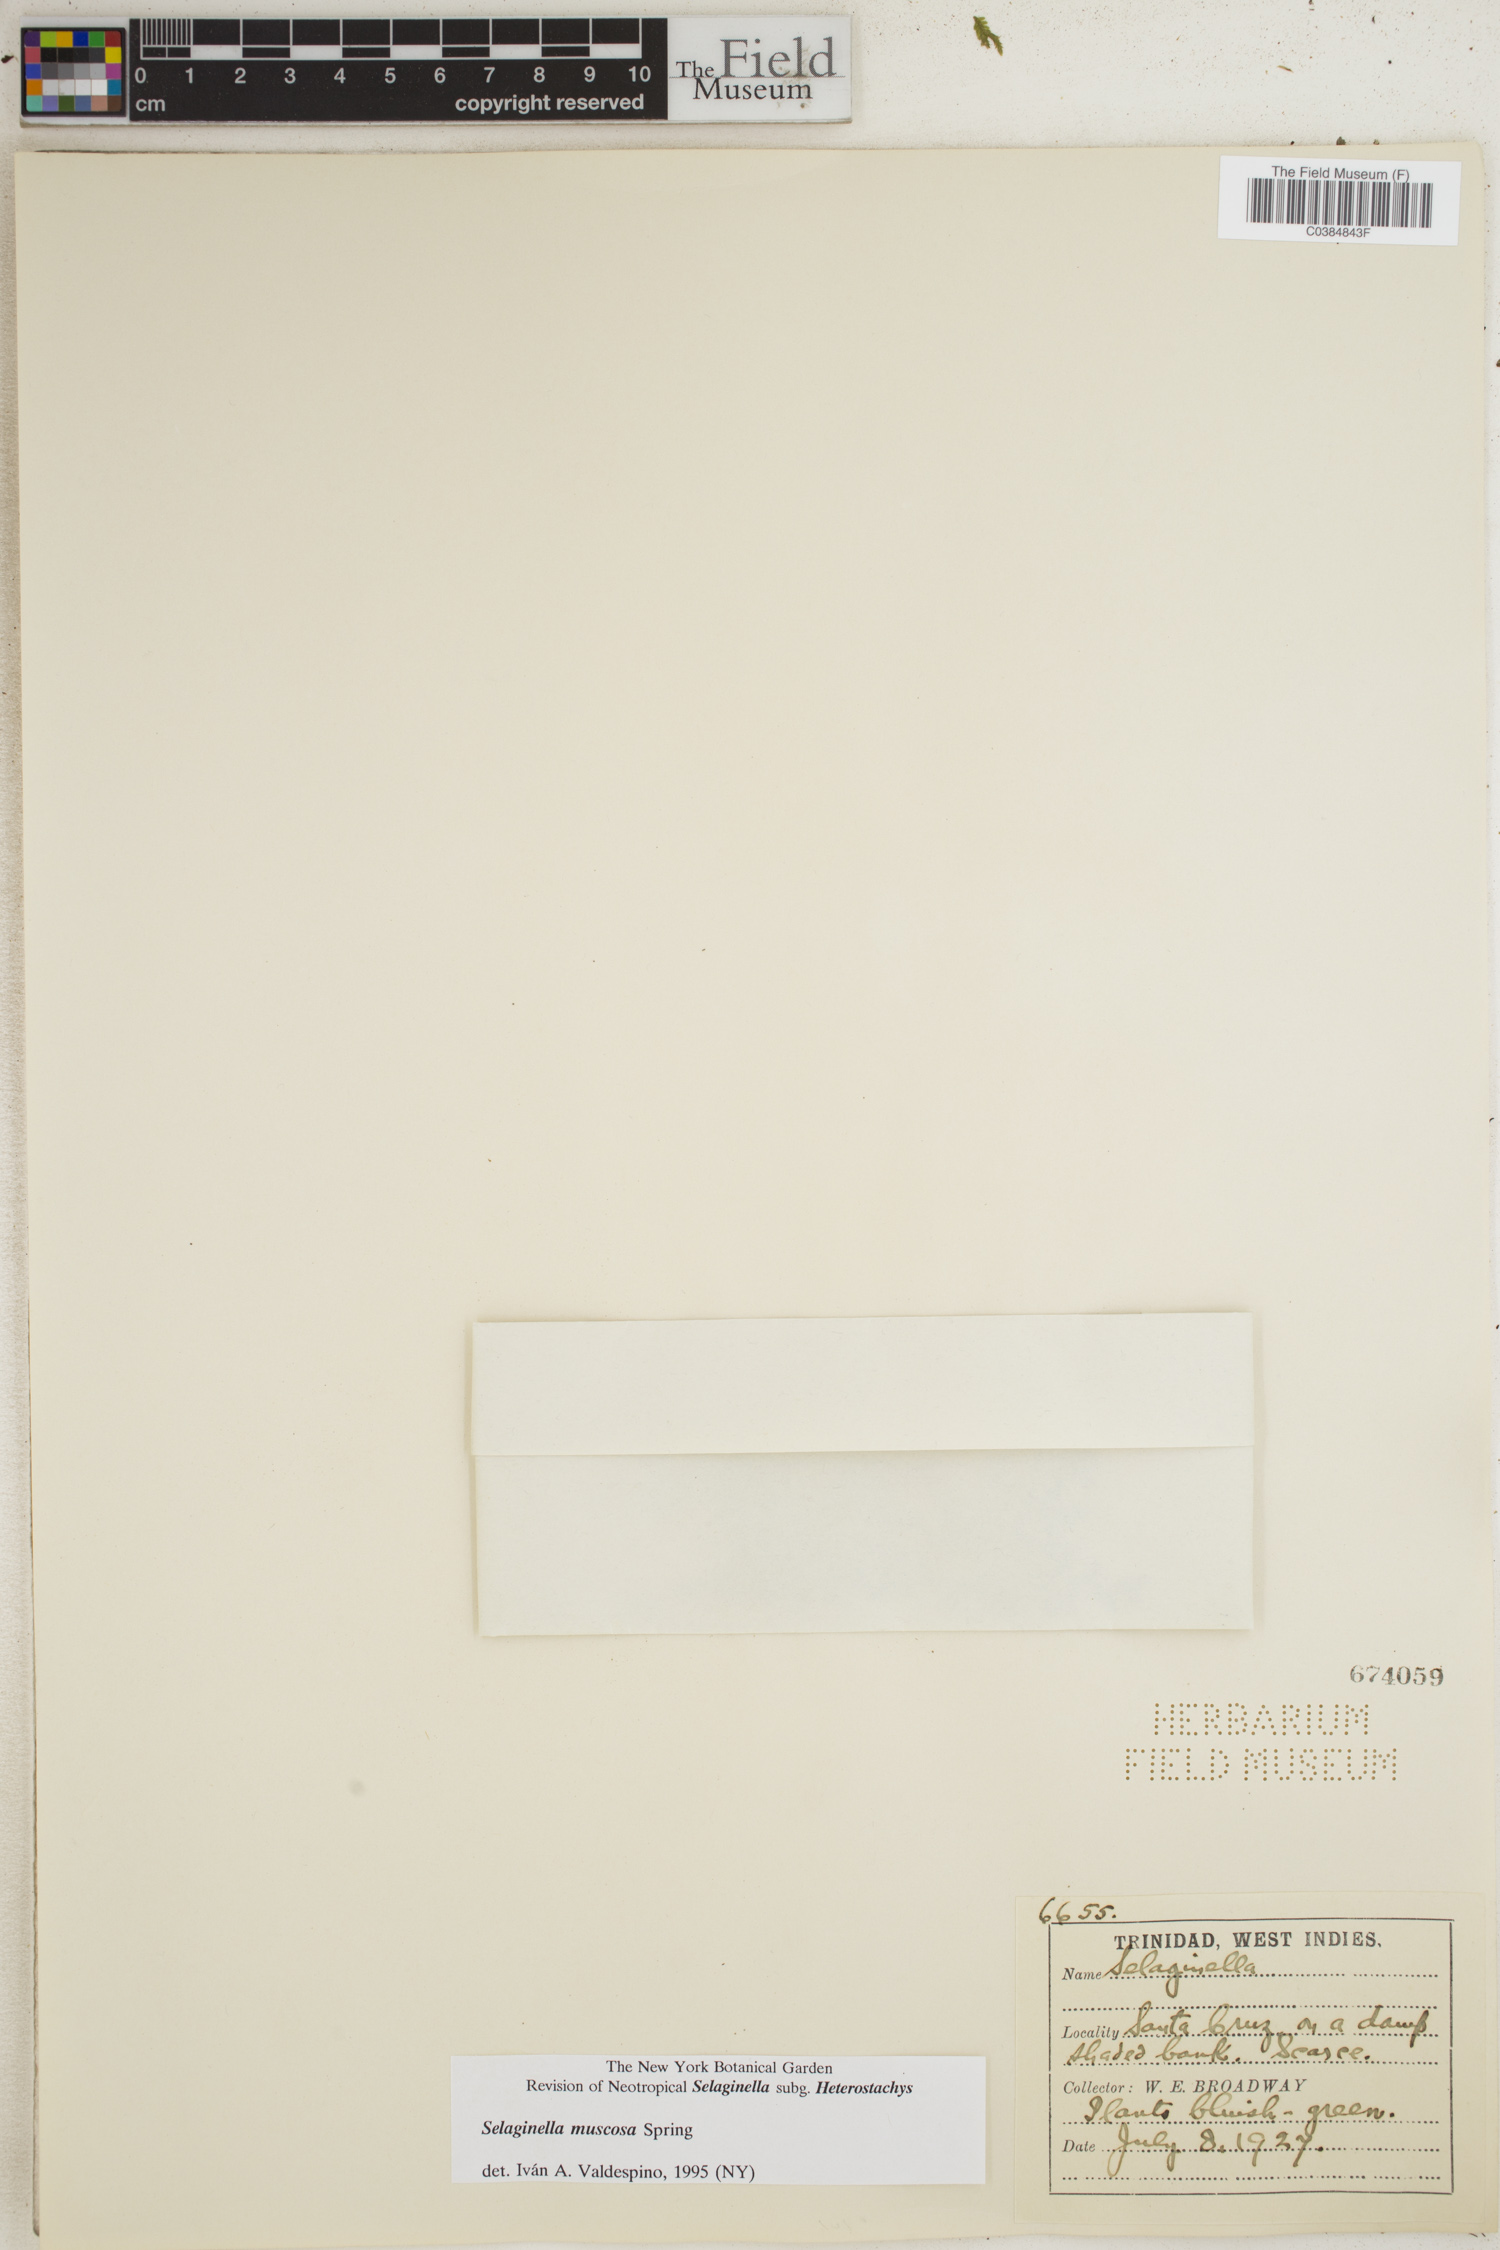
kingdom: Plantae
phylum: Tracheophyta
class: Lycopodiopsida
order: Selaginellales
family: Selaginellaceae
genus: Selaginella
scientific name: Selaginella muscosa
